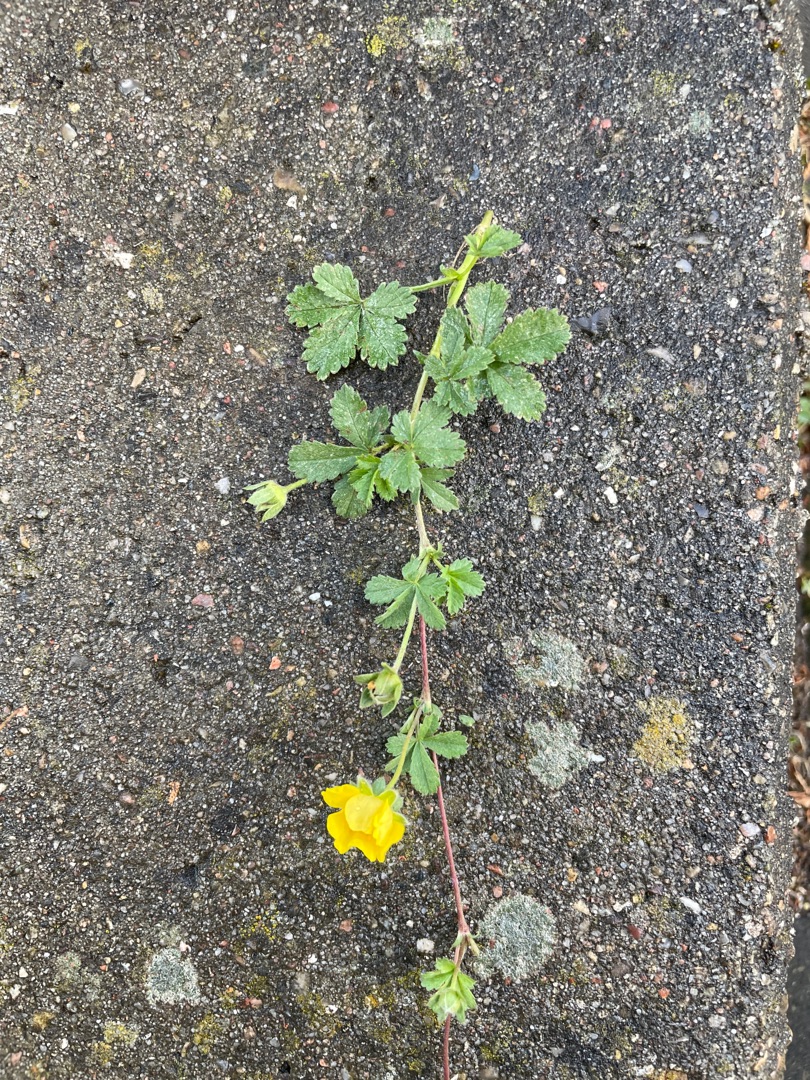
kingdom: Plantae
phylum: Tracheophyta
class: Magnoliopsida
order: Rosales
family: Rosaceae
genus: Potentilla
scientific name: Potentilla reptans
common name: Krybende potentil
